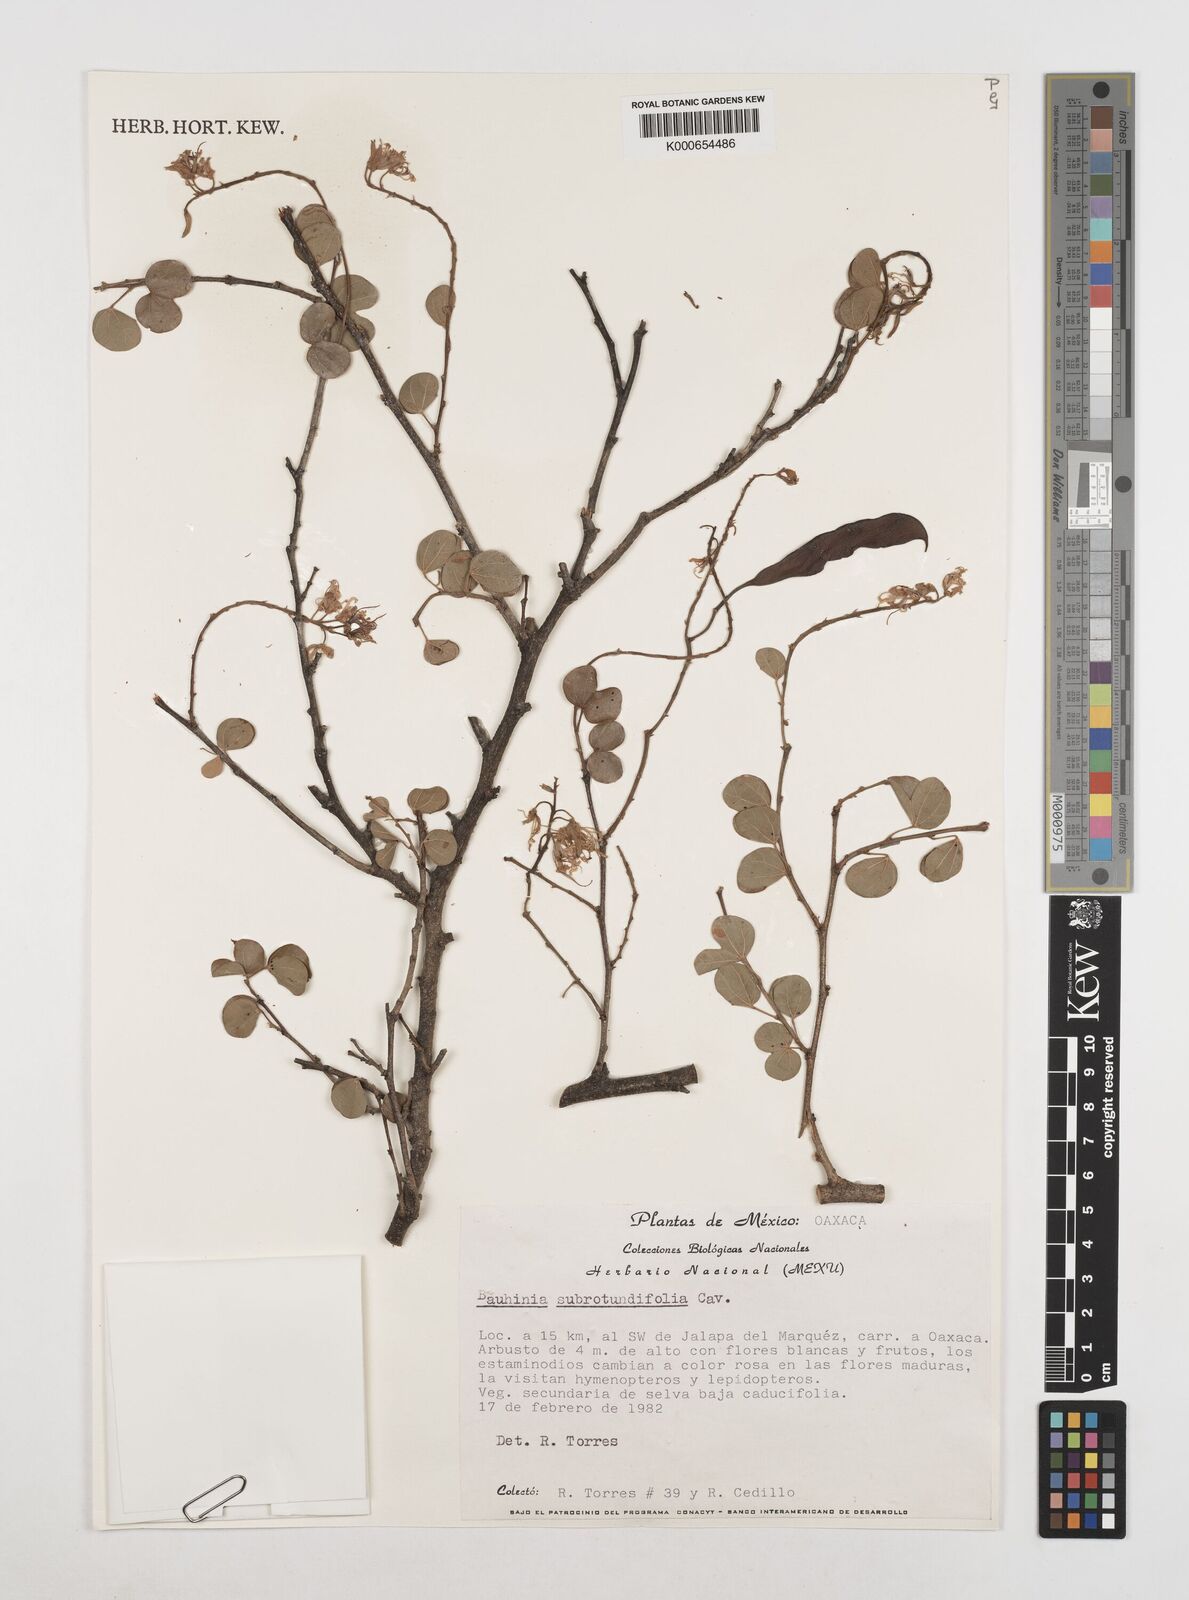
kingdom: Plantae
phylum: Tracheophyta
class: Magnoliopsida
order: Fabales
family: Fabaceae
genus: Bauhinia
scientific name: Bauhinia subrotundifolia
